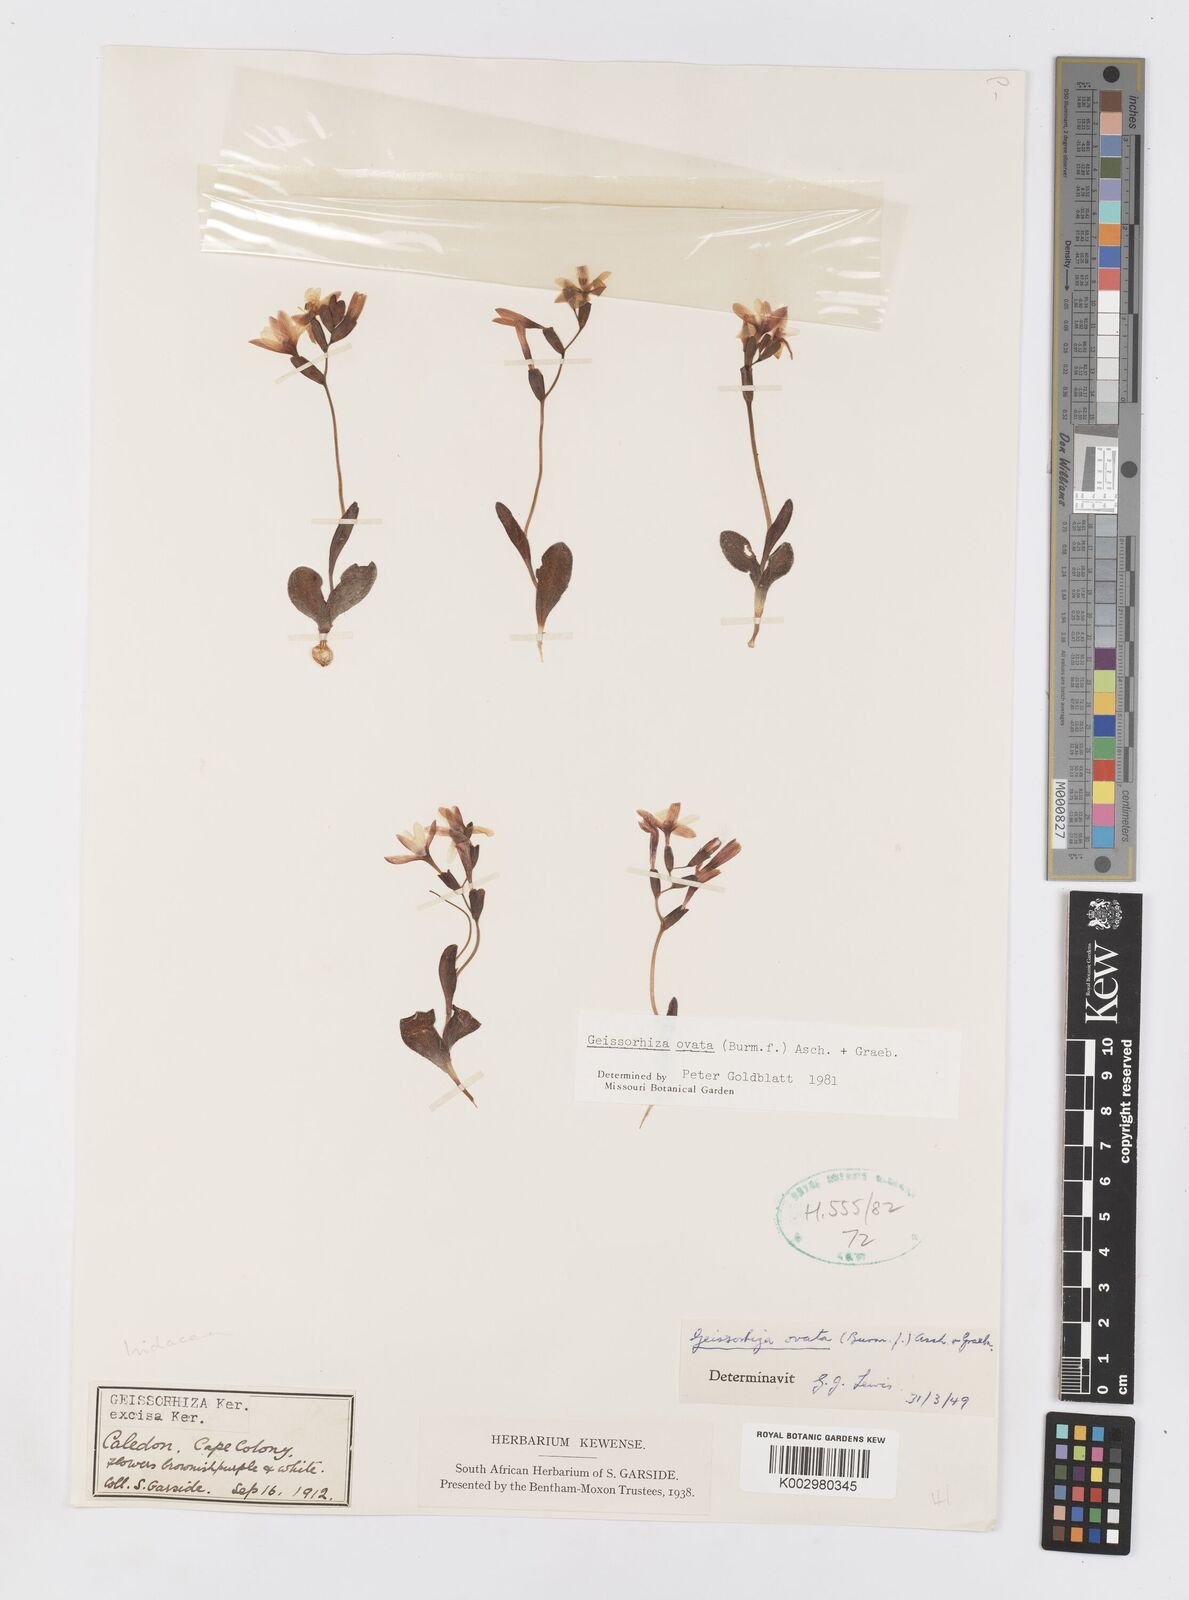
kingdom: Plantae
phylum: Tracheophyta
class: Liliopsida
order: Asparagales
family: Iridaceae
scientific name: Iridaceae
